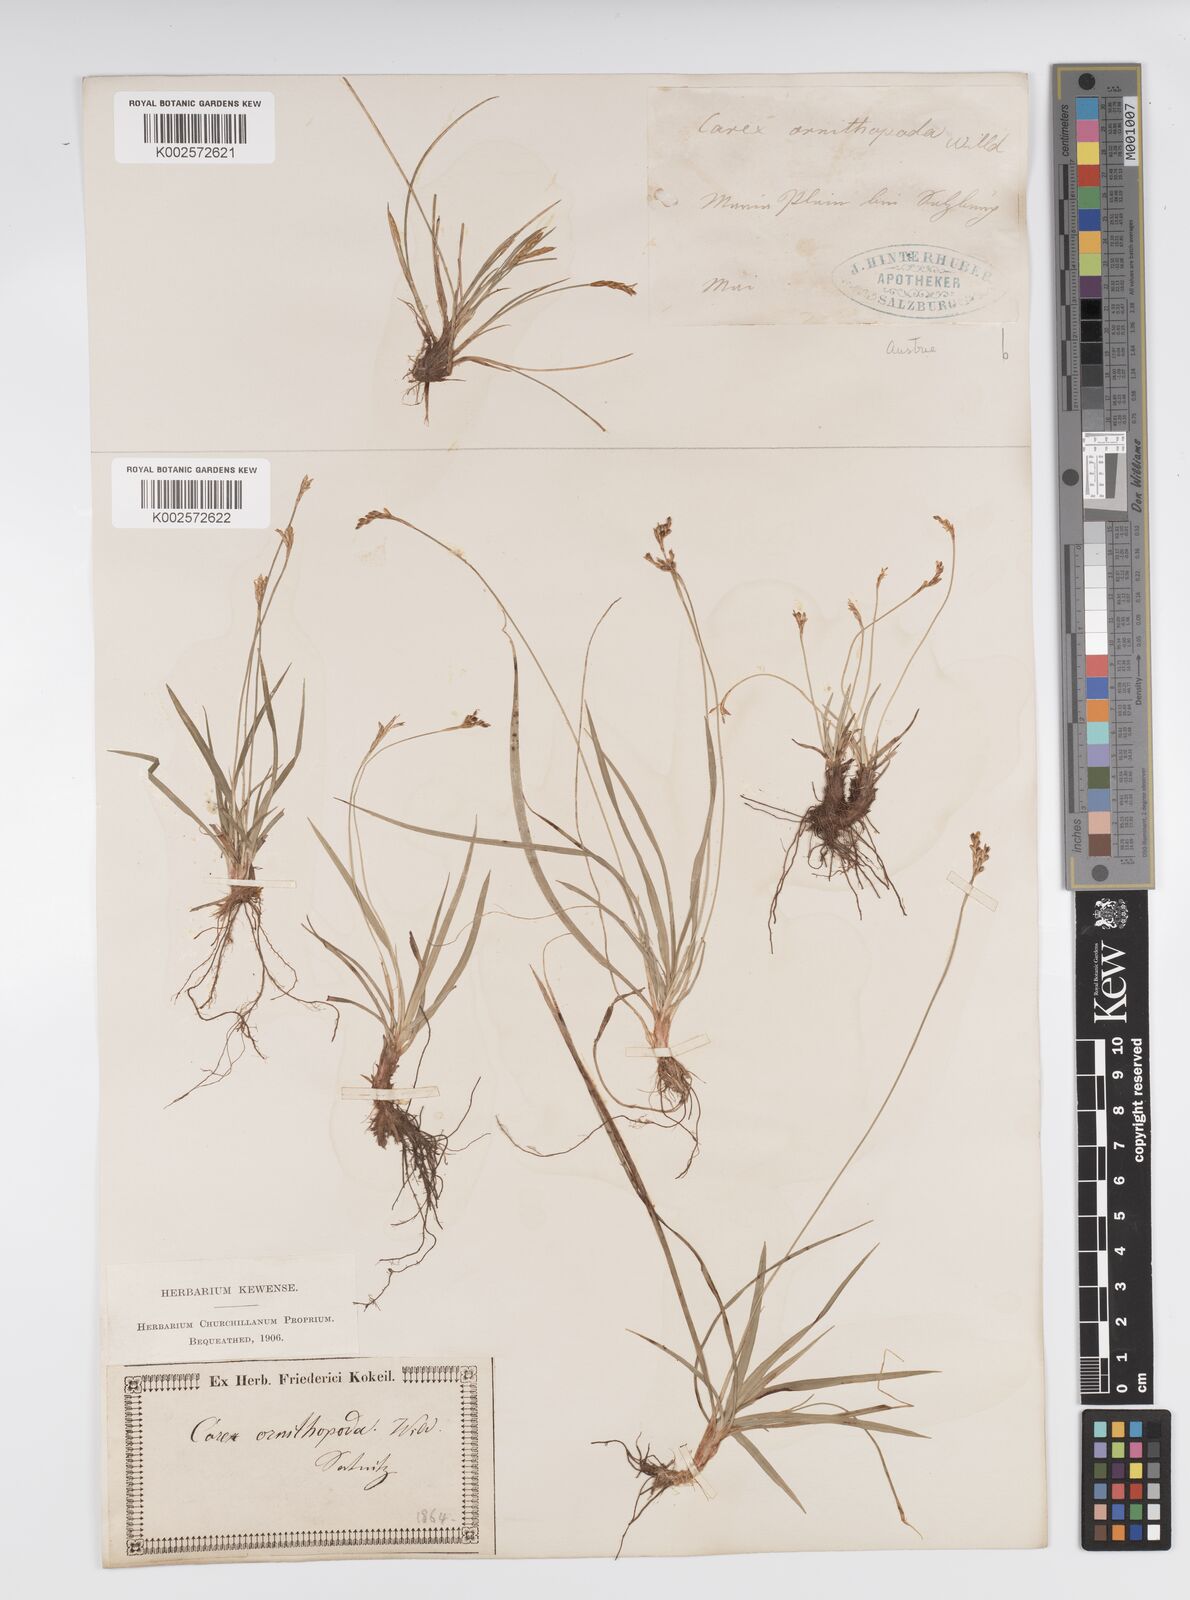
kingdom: Plantae
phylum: Tracheophyta
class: Liliopsida
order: Poales
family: Cyperaceae
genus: Carex
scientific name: Carex ornithopoda
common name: Bird's-foot sedge
